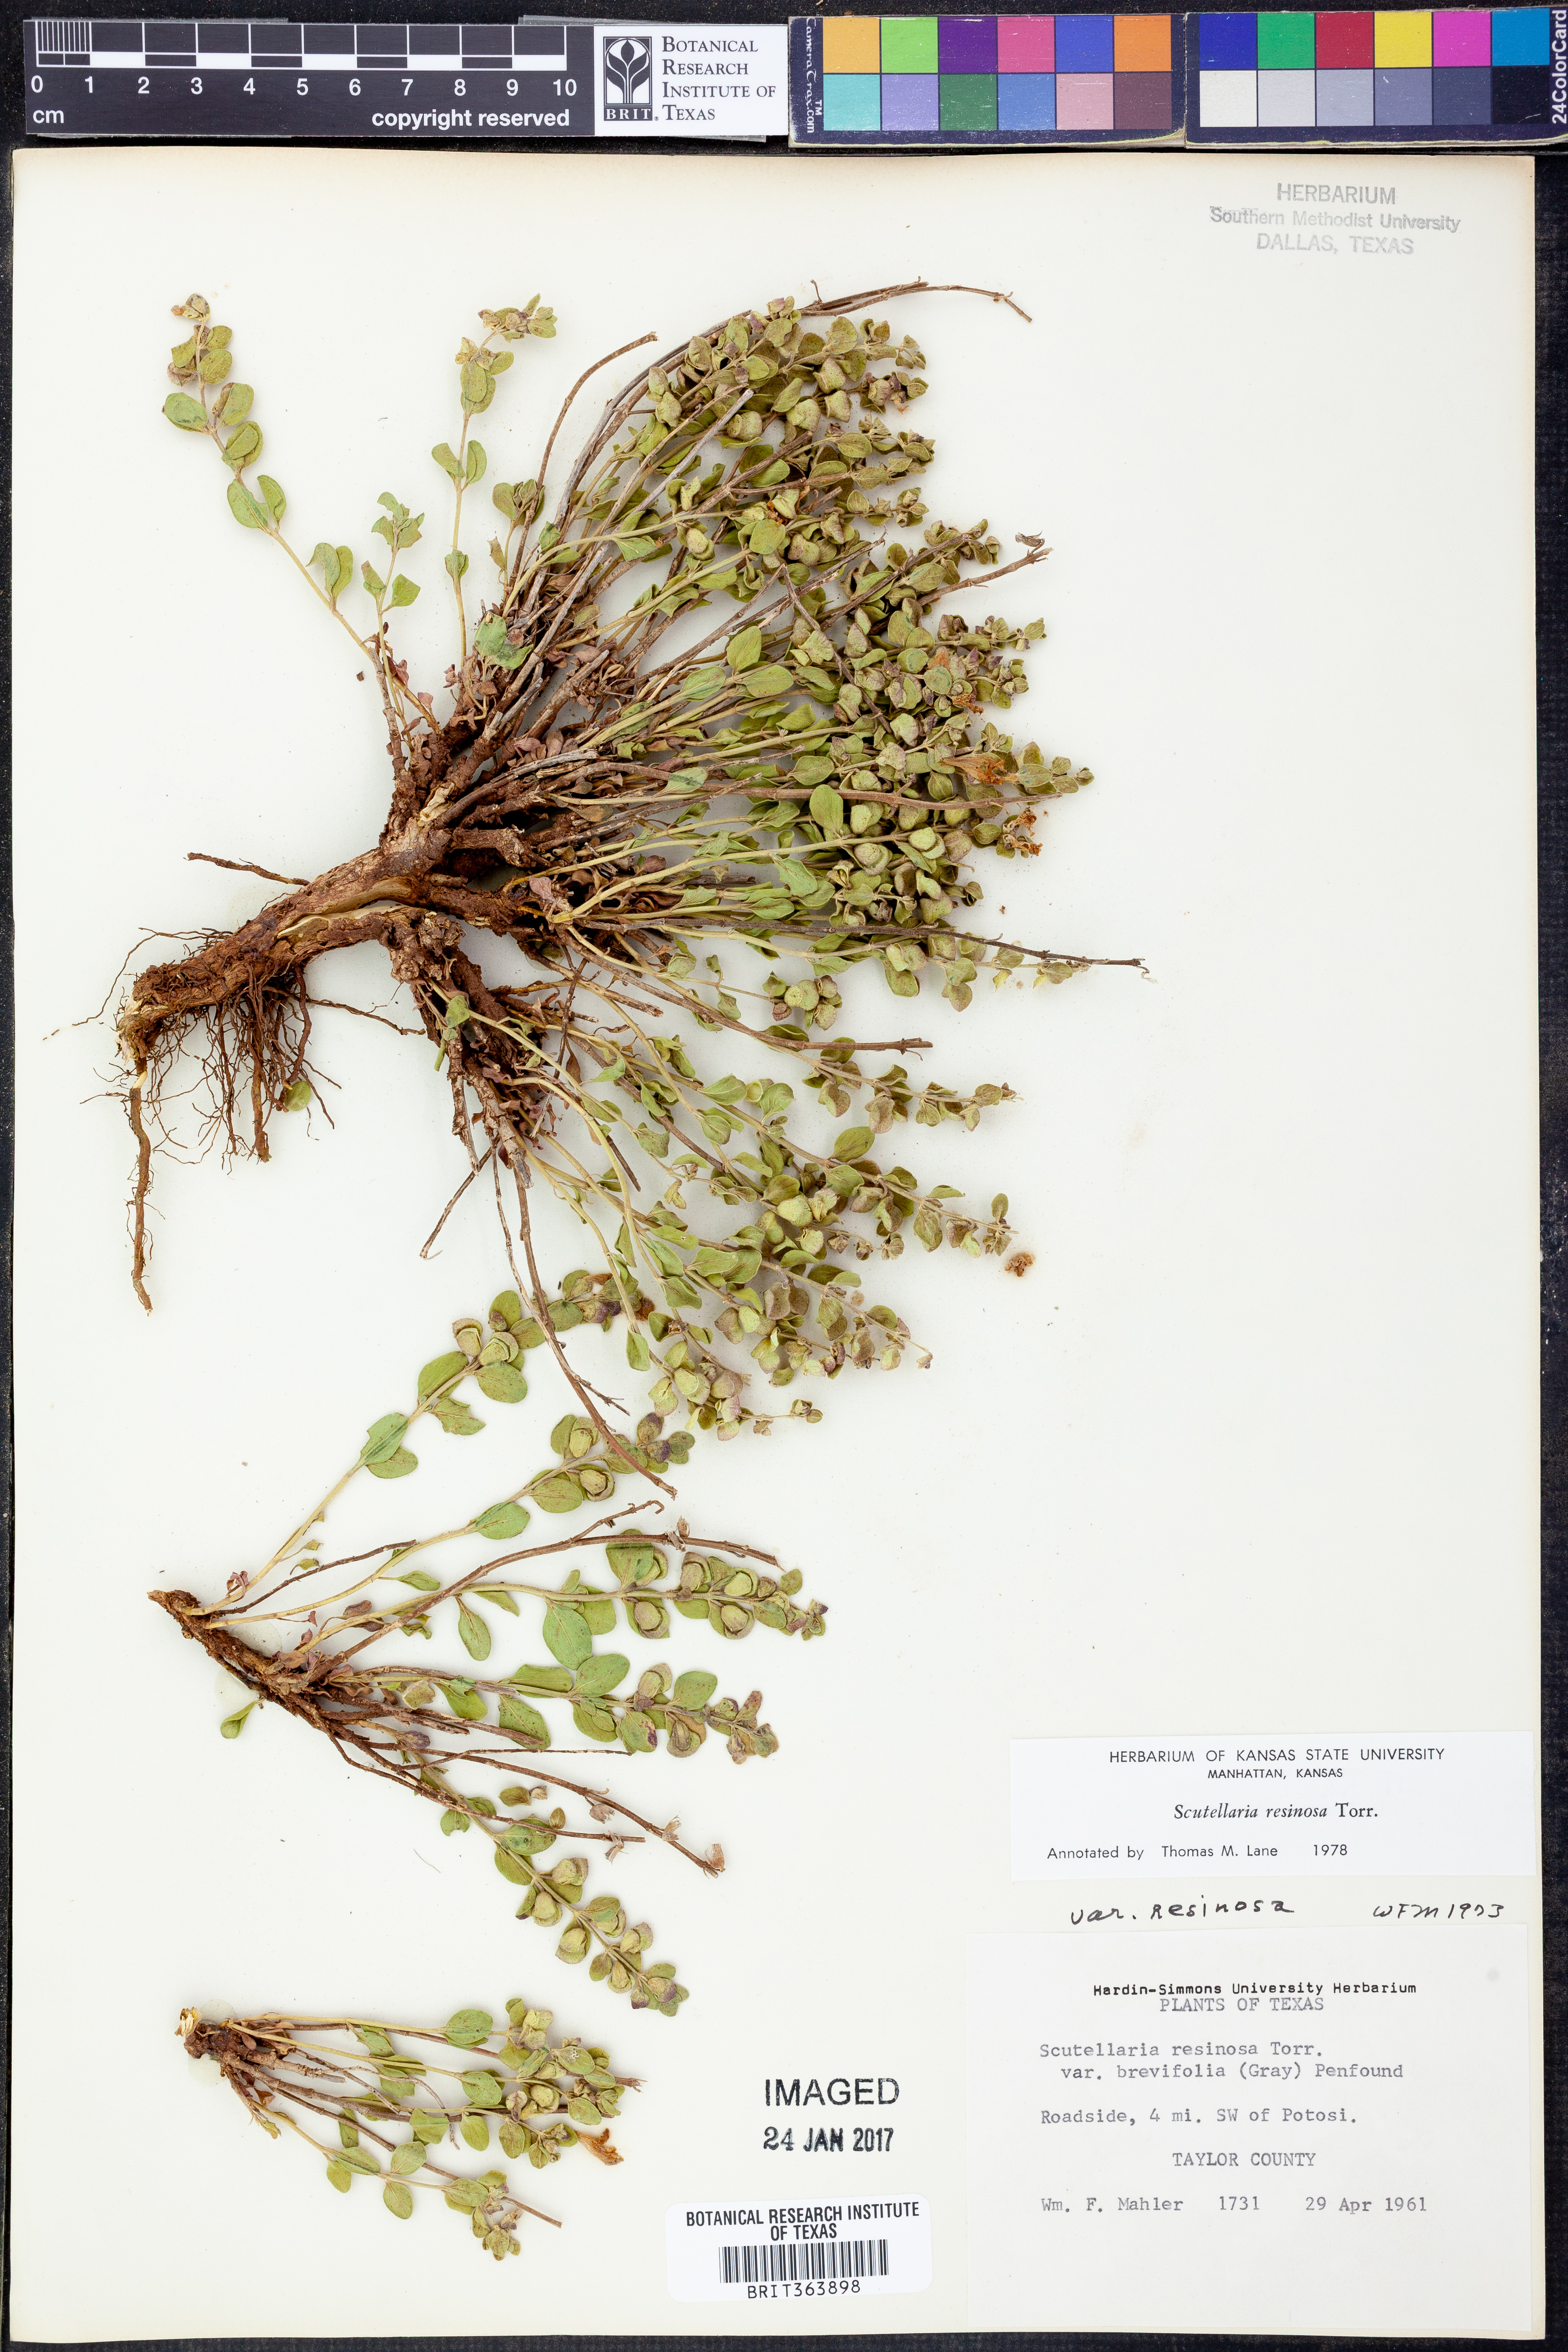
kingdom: Plantae
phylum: Tracheophyta
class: Magnoliopsida
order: Lamiales
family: Lamiaceae
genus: Scutellaria
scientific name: Scutellaria resinosa
